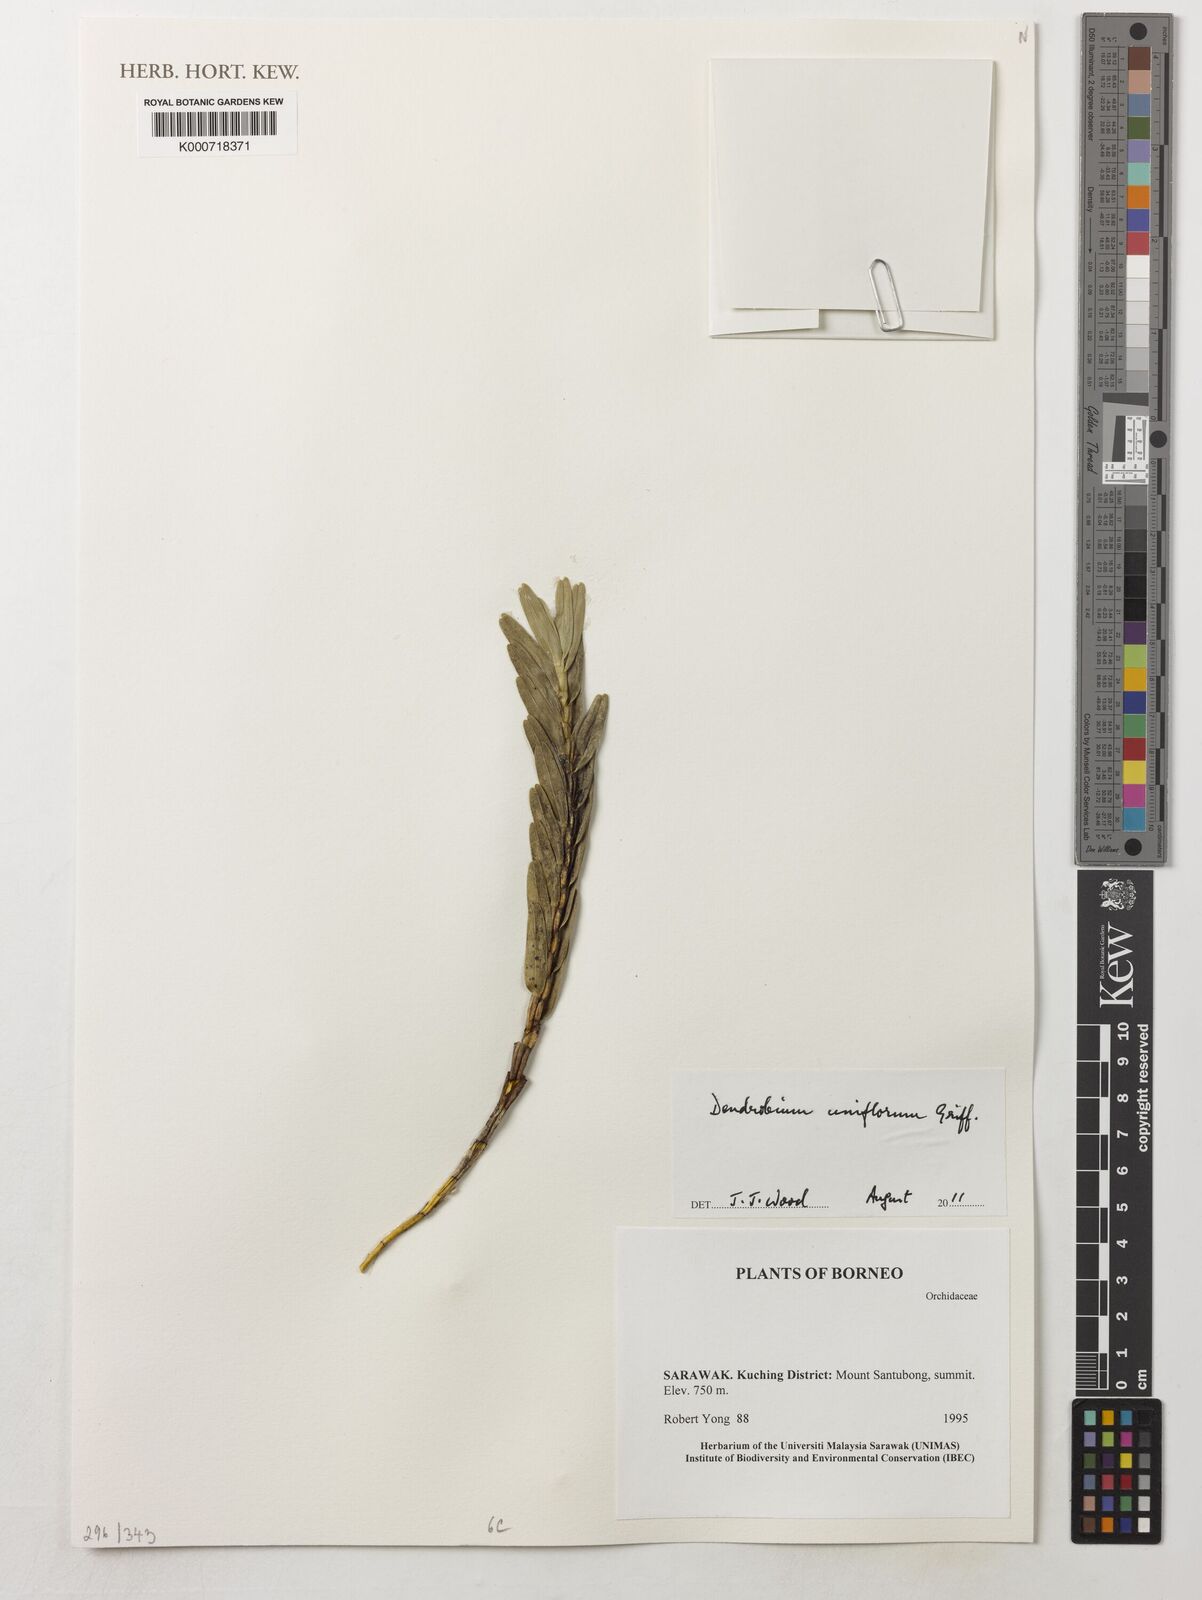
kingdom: Plantae
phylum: Tracheophyta
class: Liliopsida
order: Asparagales
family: Orchidaceae
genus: Dendrobium
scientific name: Dendrobium uniflorum
